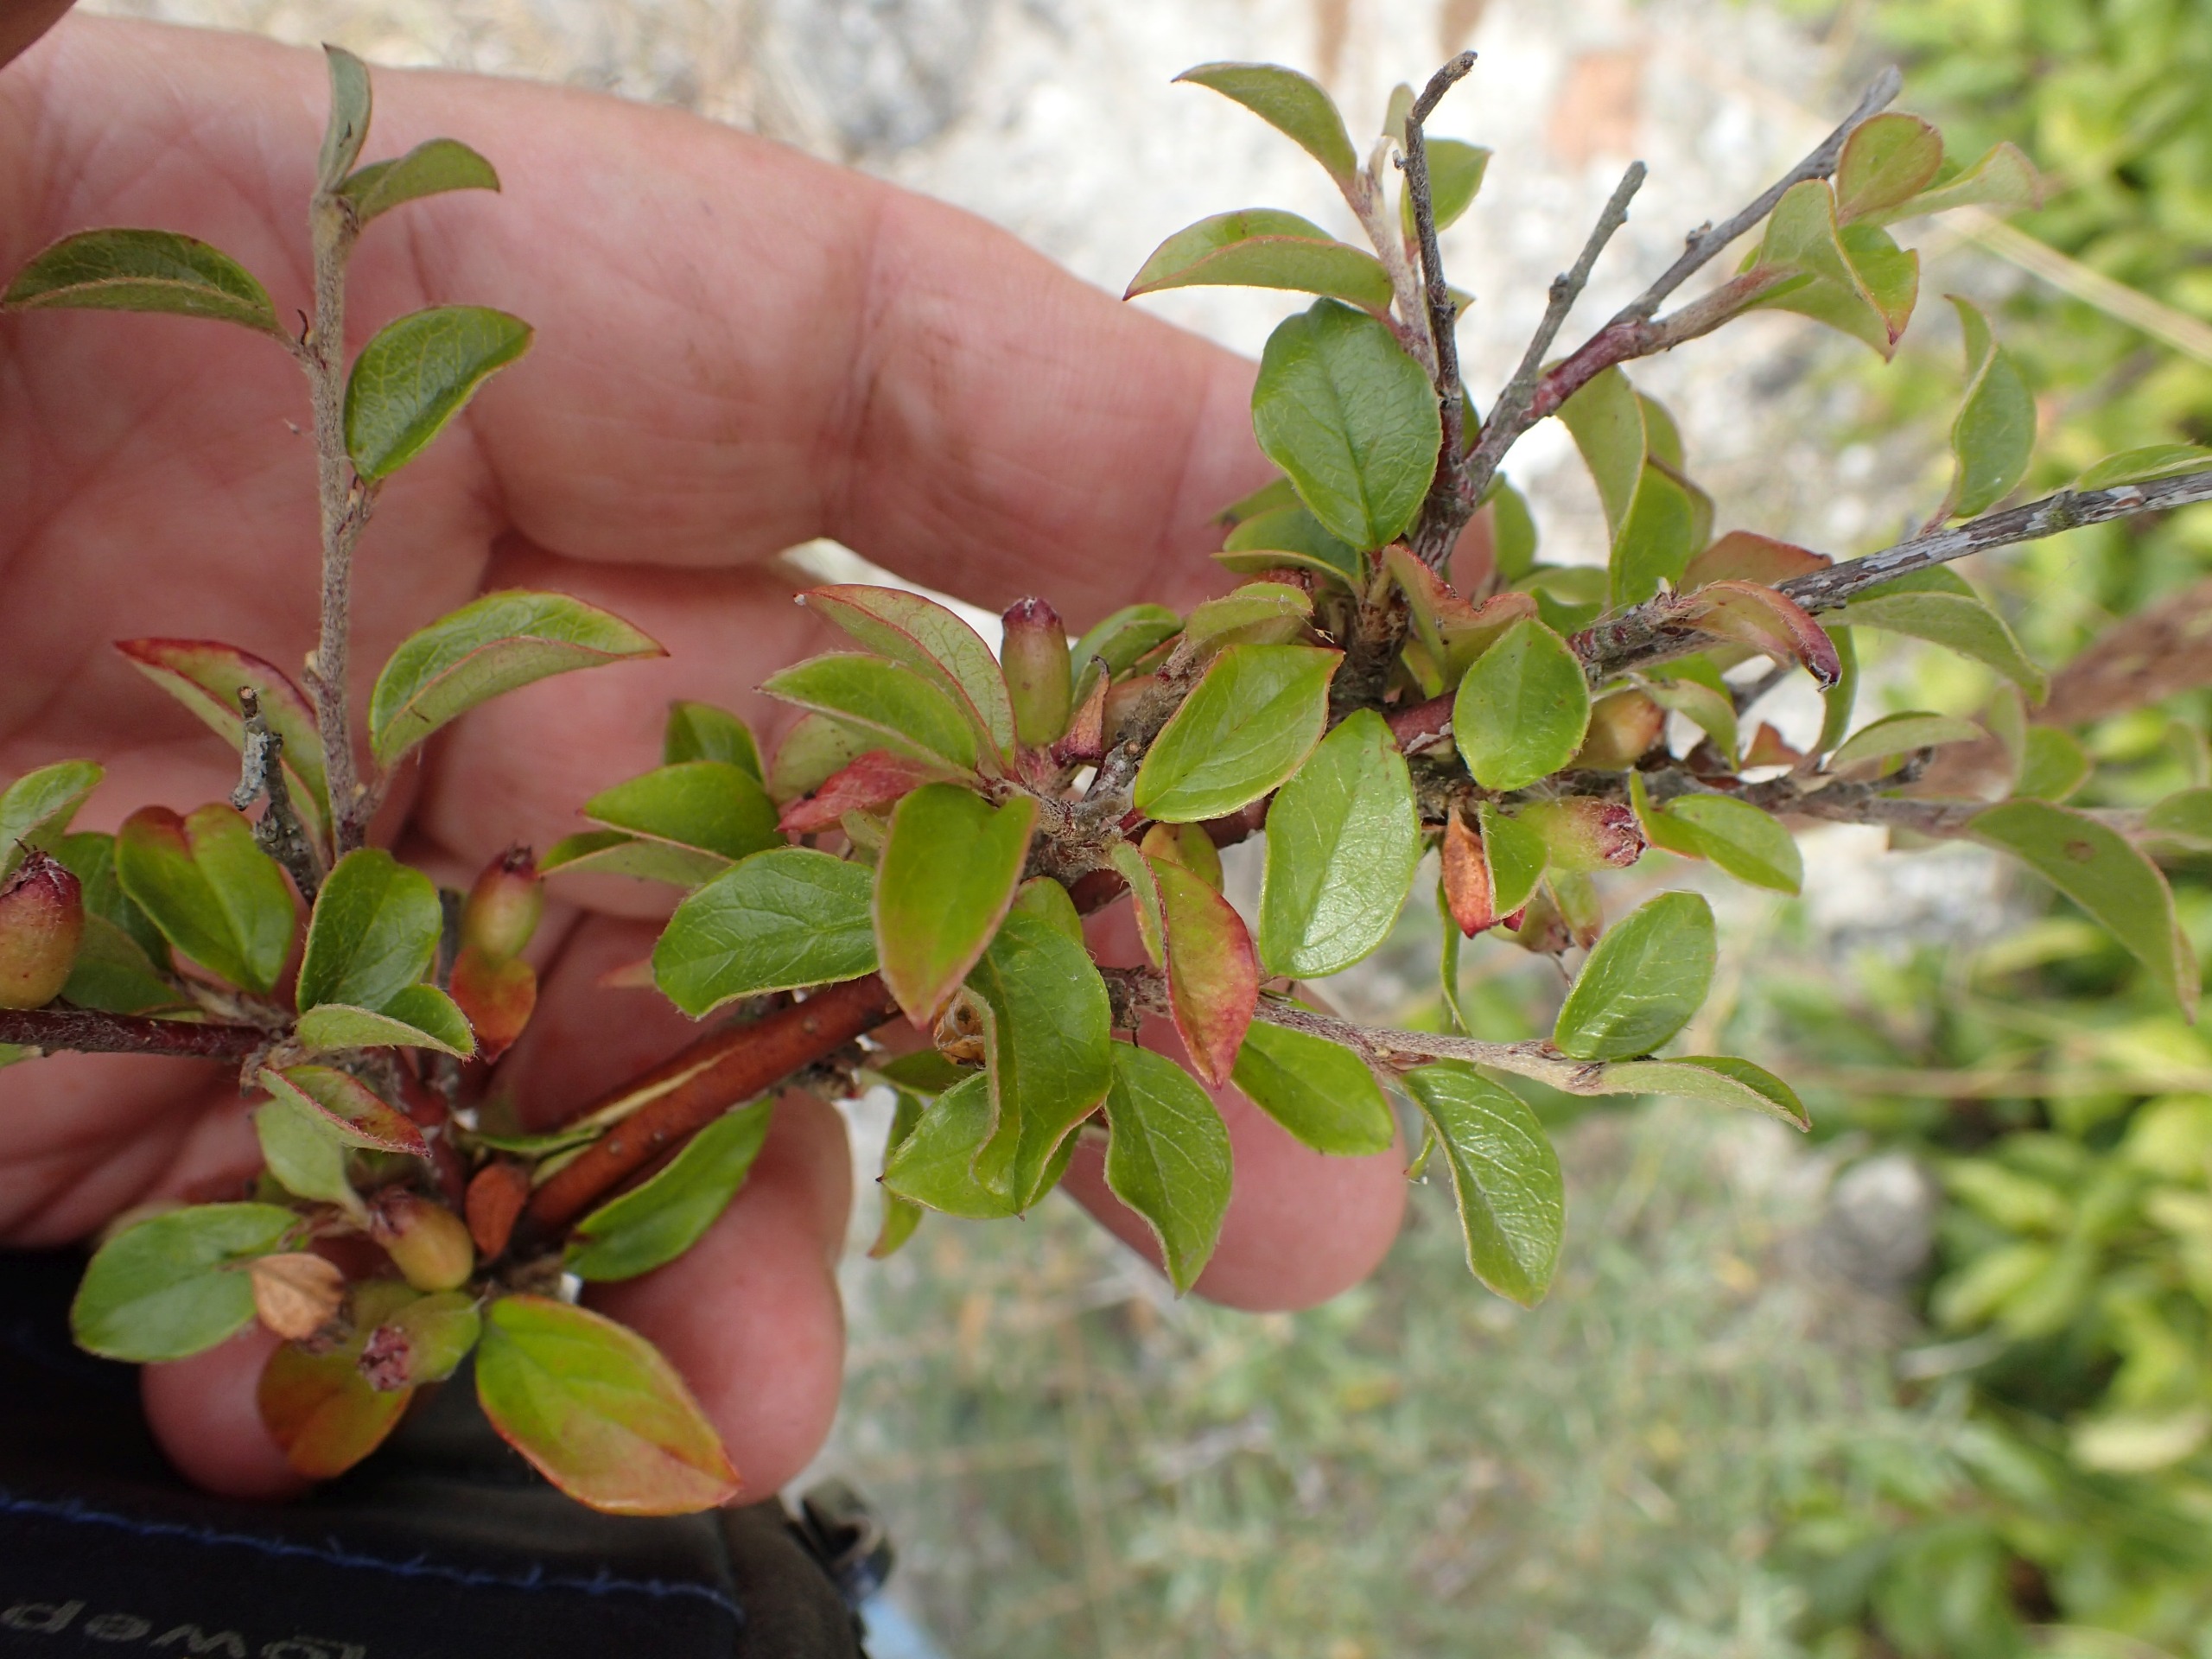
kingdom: Plantae
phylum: Tracheophyta
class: Magnoliopsida
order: Rosales
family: Rosaceae
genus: Cotoneaster
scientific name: Cotoneaster divaricatus
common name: Vifte-dværgmispel
